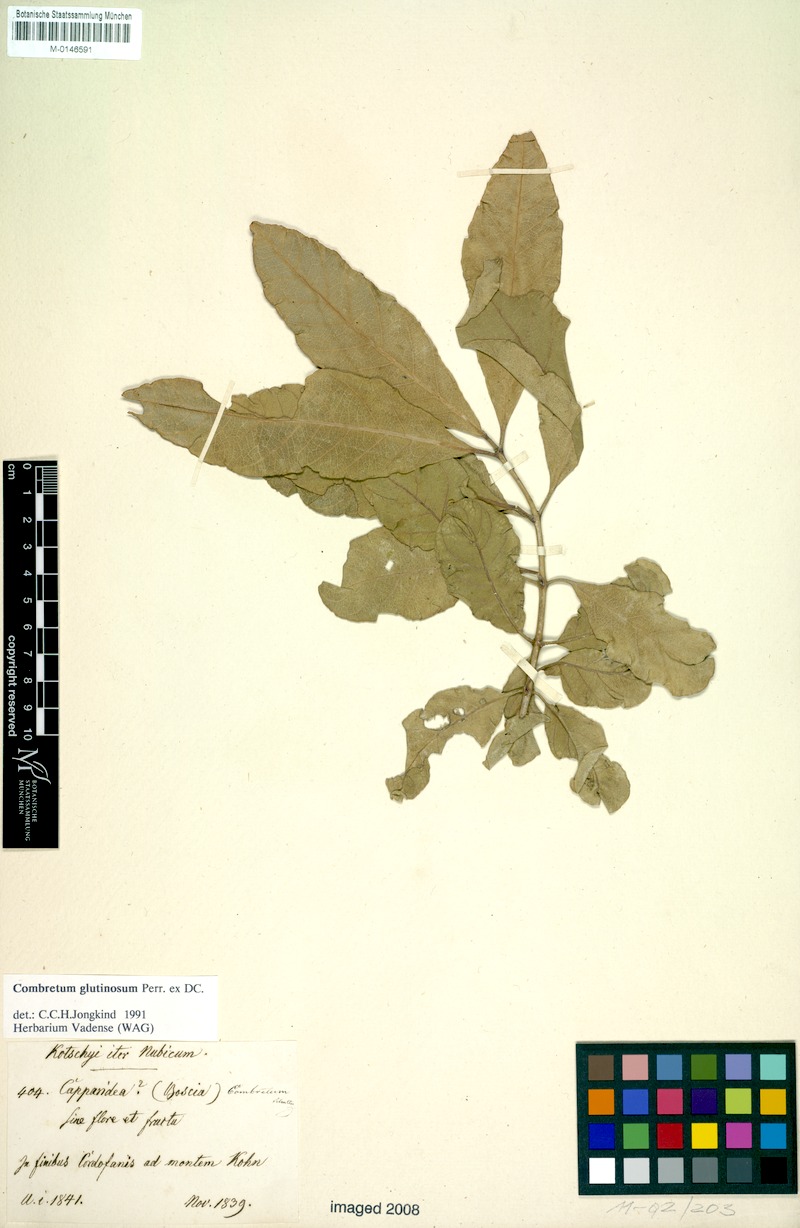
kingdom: Plantae
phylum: Tracheophyta
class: Magnoliopsida
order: Myrtales
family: Combretaceae
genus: Combretum
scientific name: Combretum glutinosum
